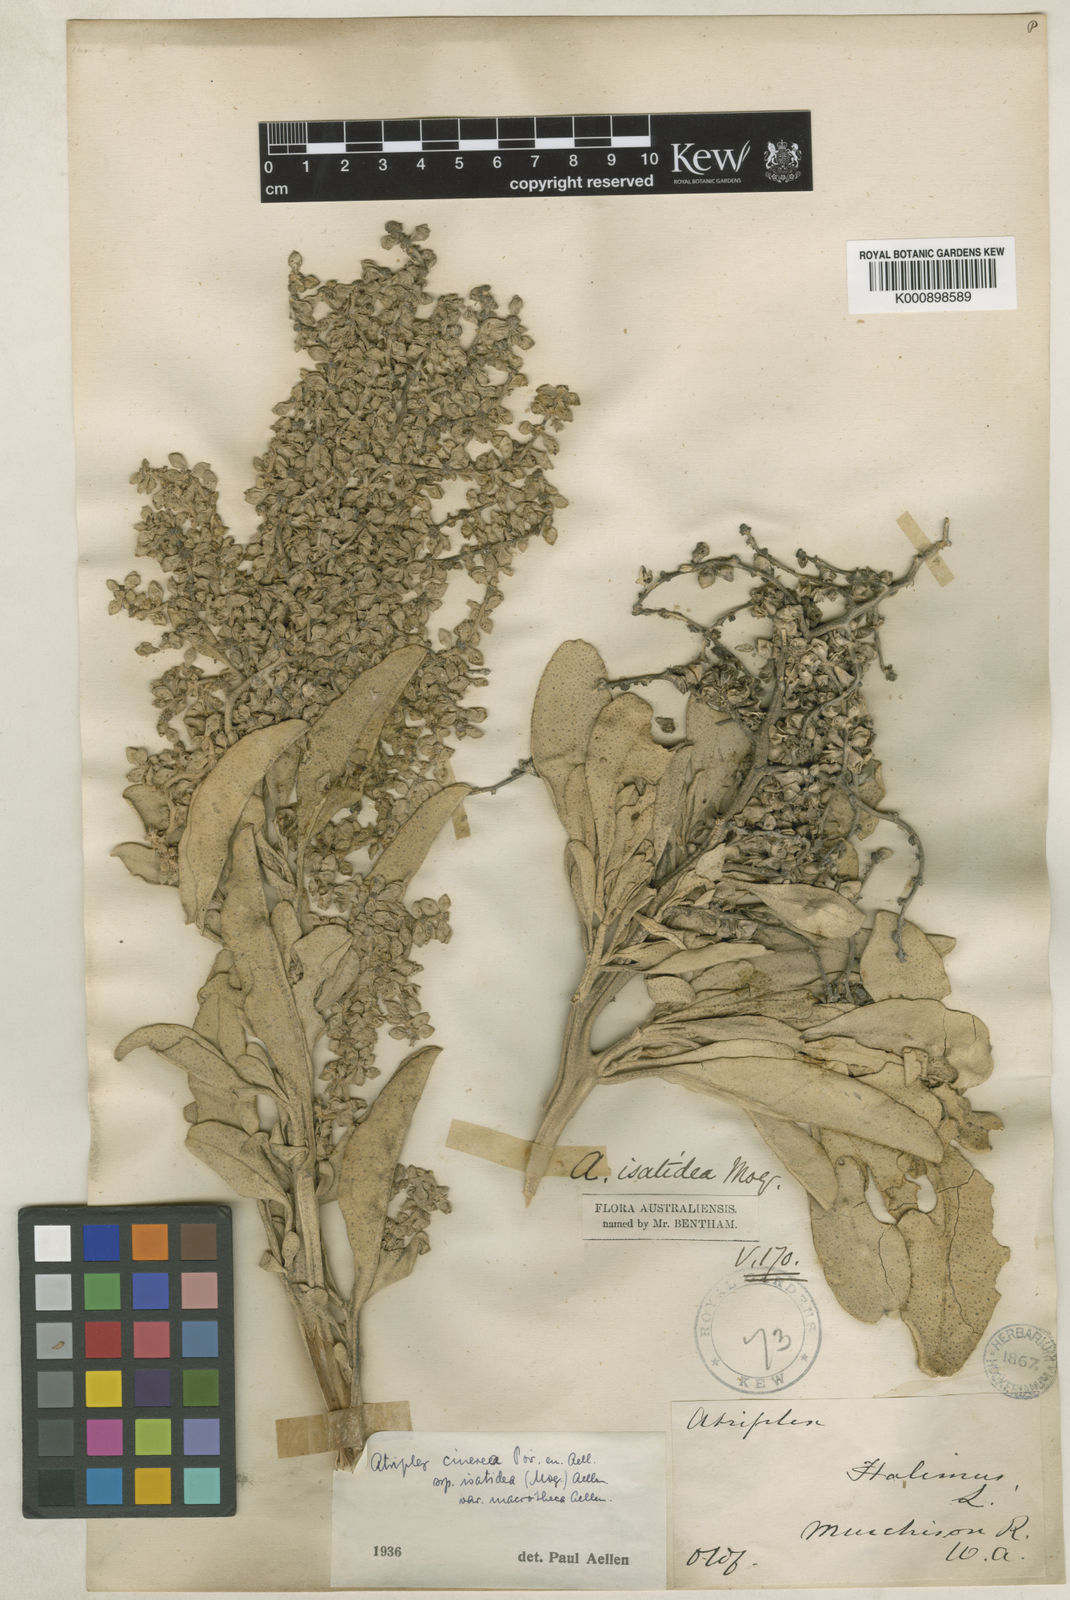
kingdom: Plantae
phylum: Tracheophyta
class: Magnoliopsida
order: Caryophyllales
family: Amaranthaceae
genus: Atriplex
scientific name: Atriplex isatidea
